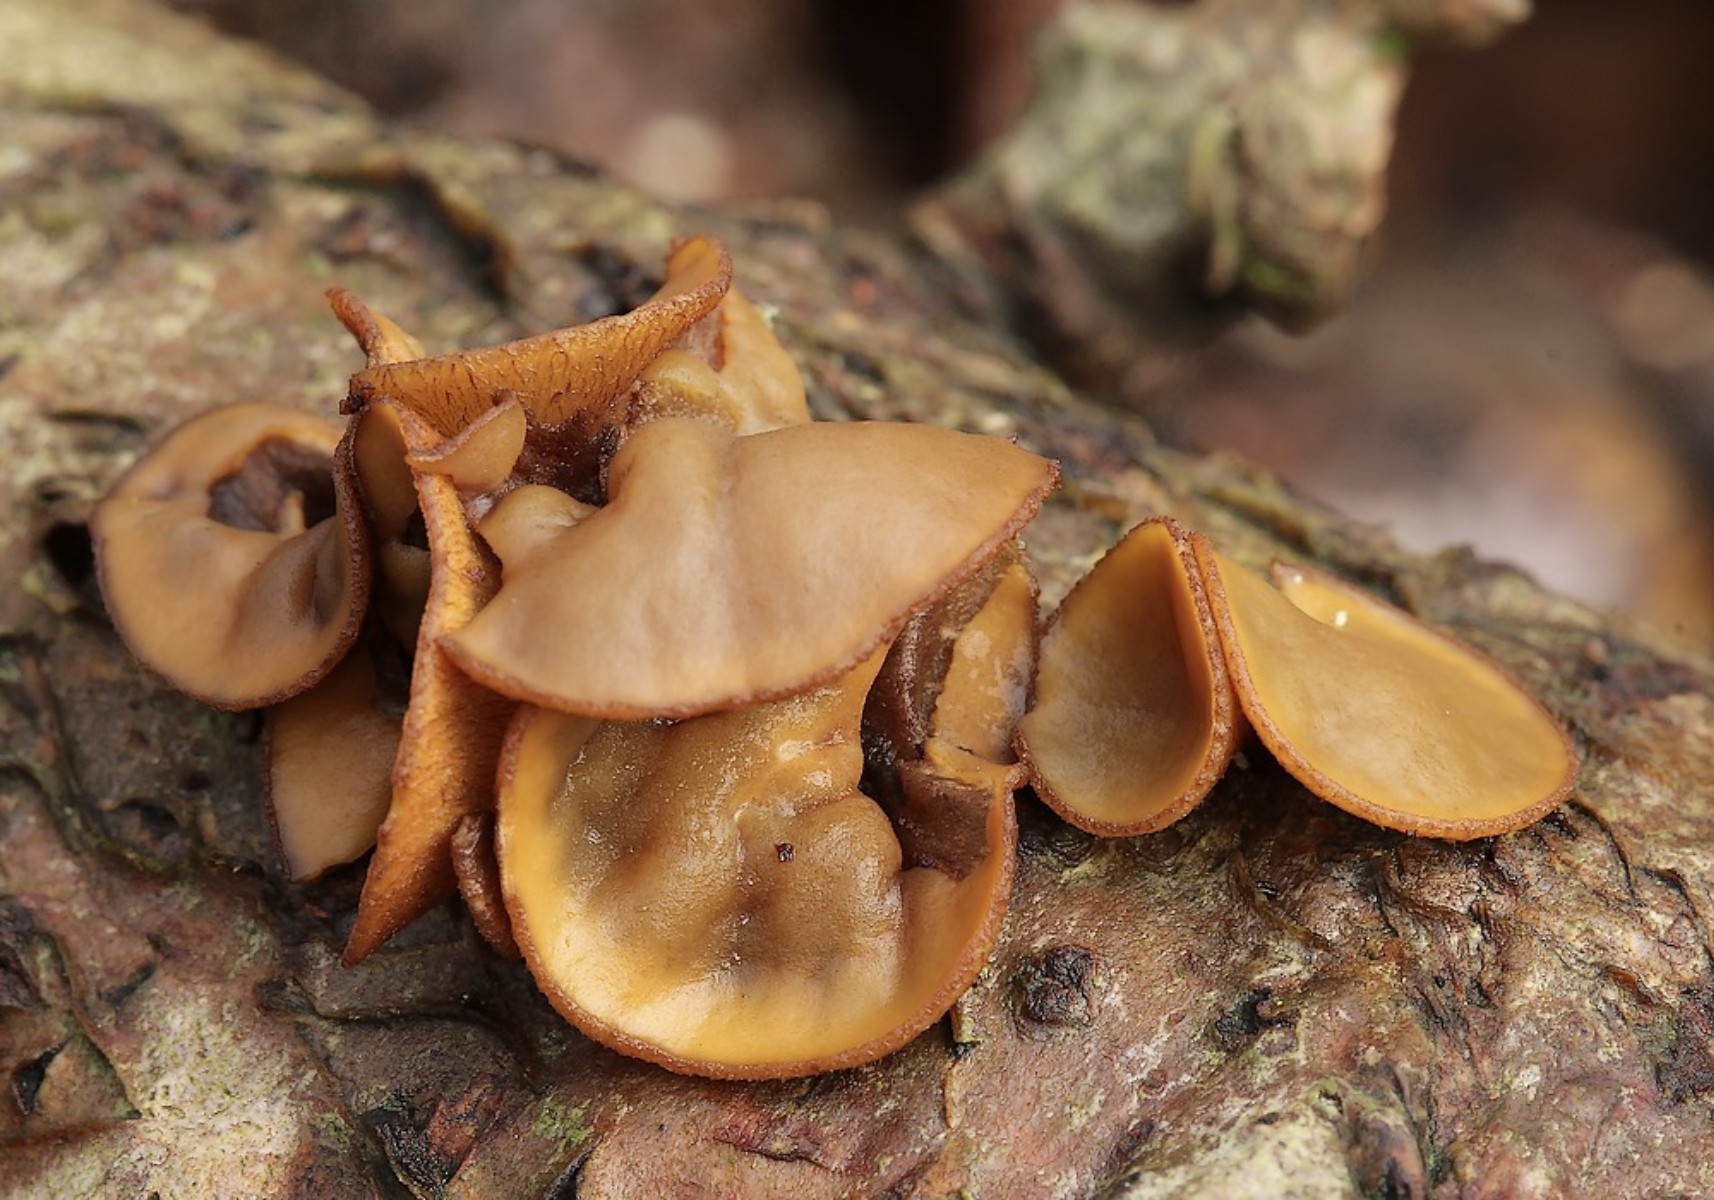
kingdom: Fungi
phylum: Ascomycota
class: Leotiomycetes
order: Helotiales
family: Rutstroemiaceae
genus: Rutstroemia
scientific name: Rutstroemia firma
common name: gren-brunskive
